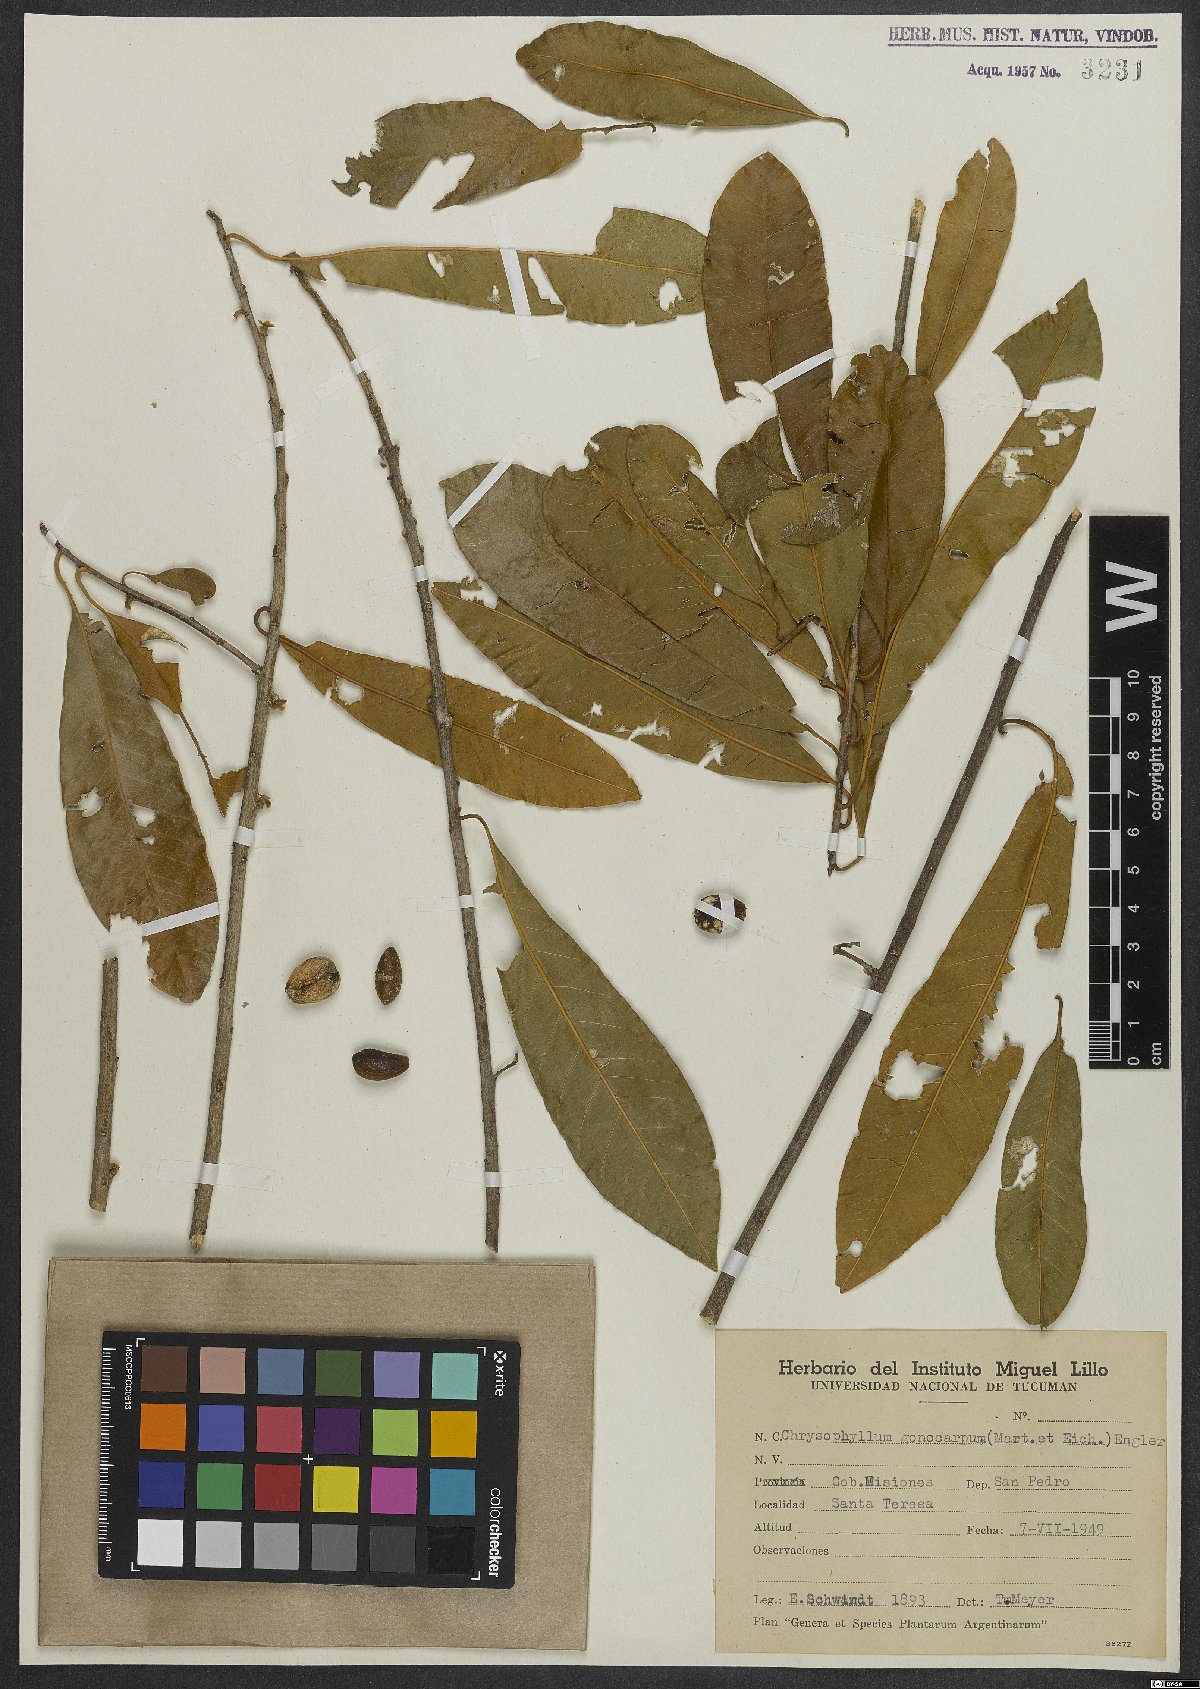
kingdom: Plantae
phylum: Tracheophyta
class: Magnoliopsida
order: Ericales
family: Sapotaceae
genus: Chrysophyllum
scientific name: Chrysophyllum gonocarpum
